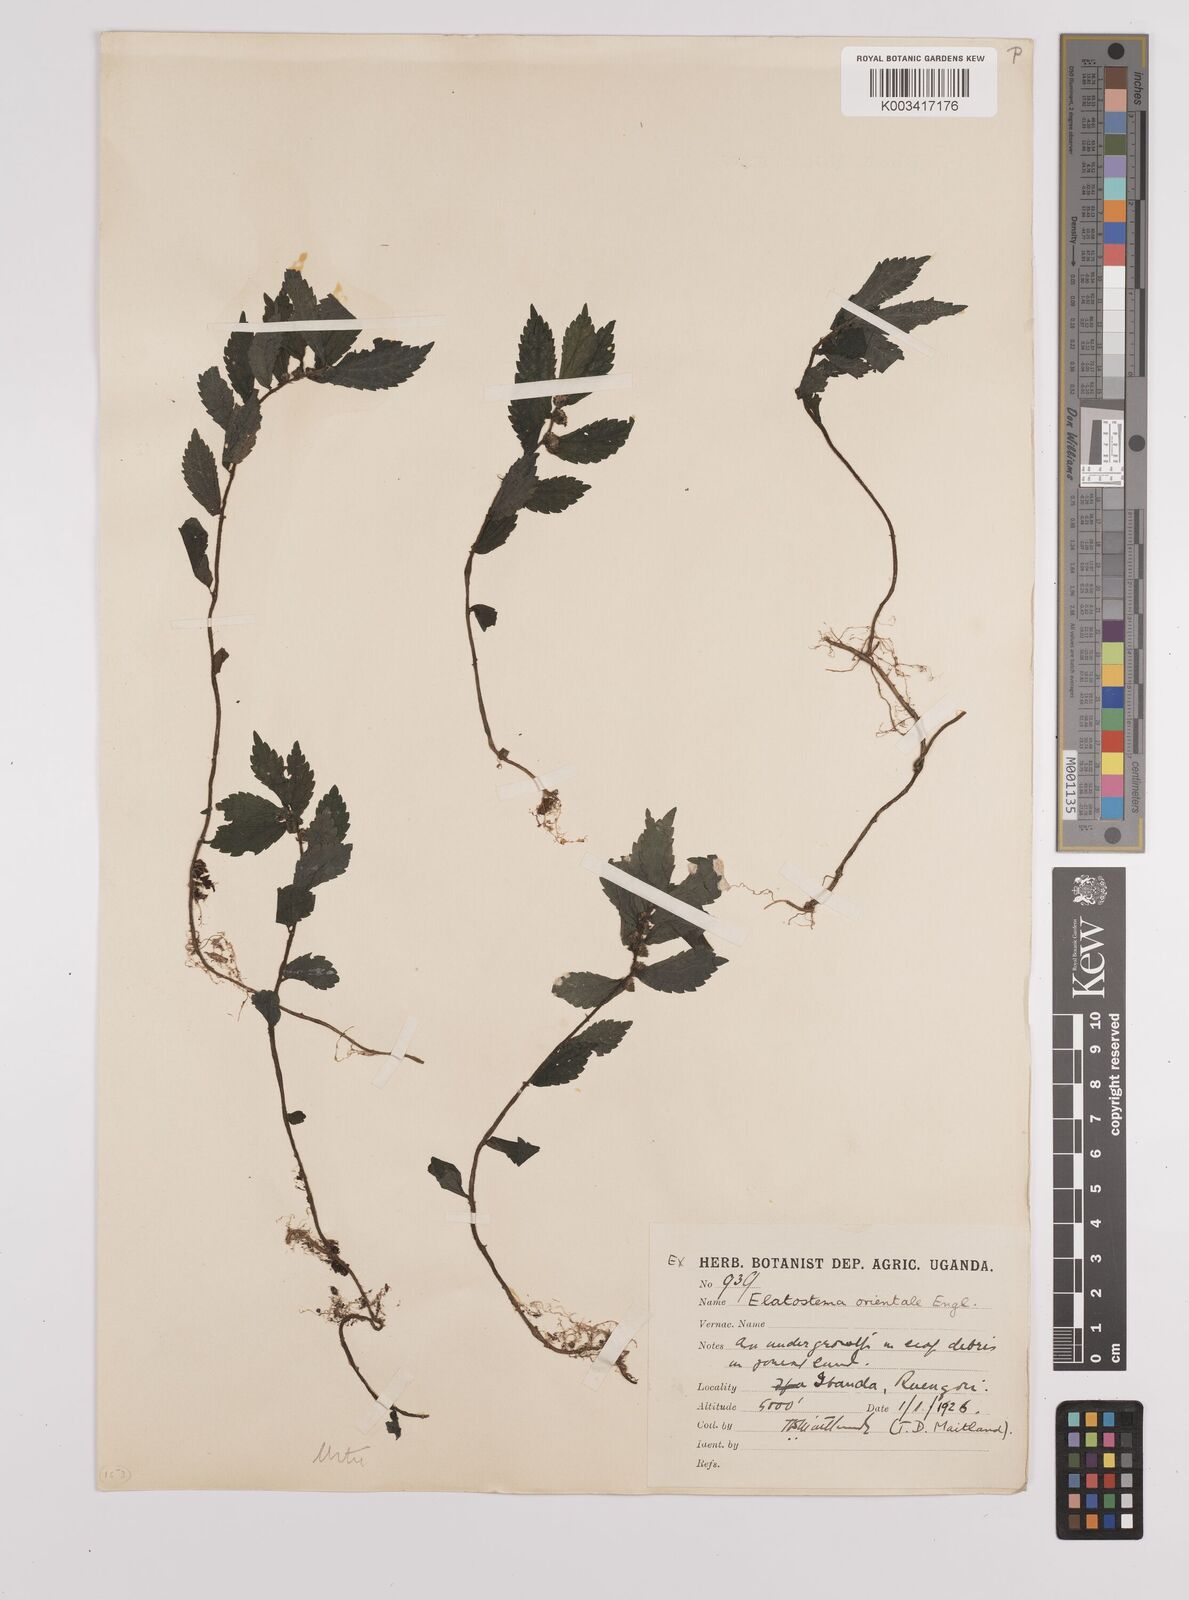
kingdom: Plantae
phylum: Tracheophyta
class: Magnoliopsida
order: Rosales
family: Urticaceae
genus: Elatostema
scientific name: Elatostema monticola
